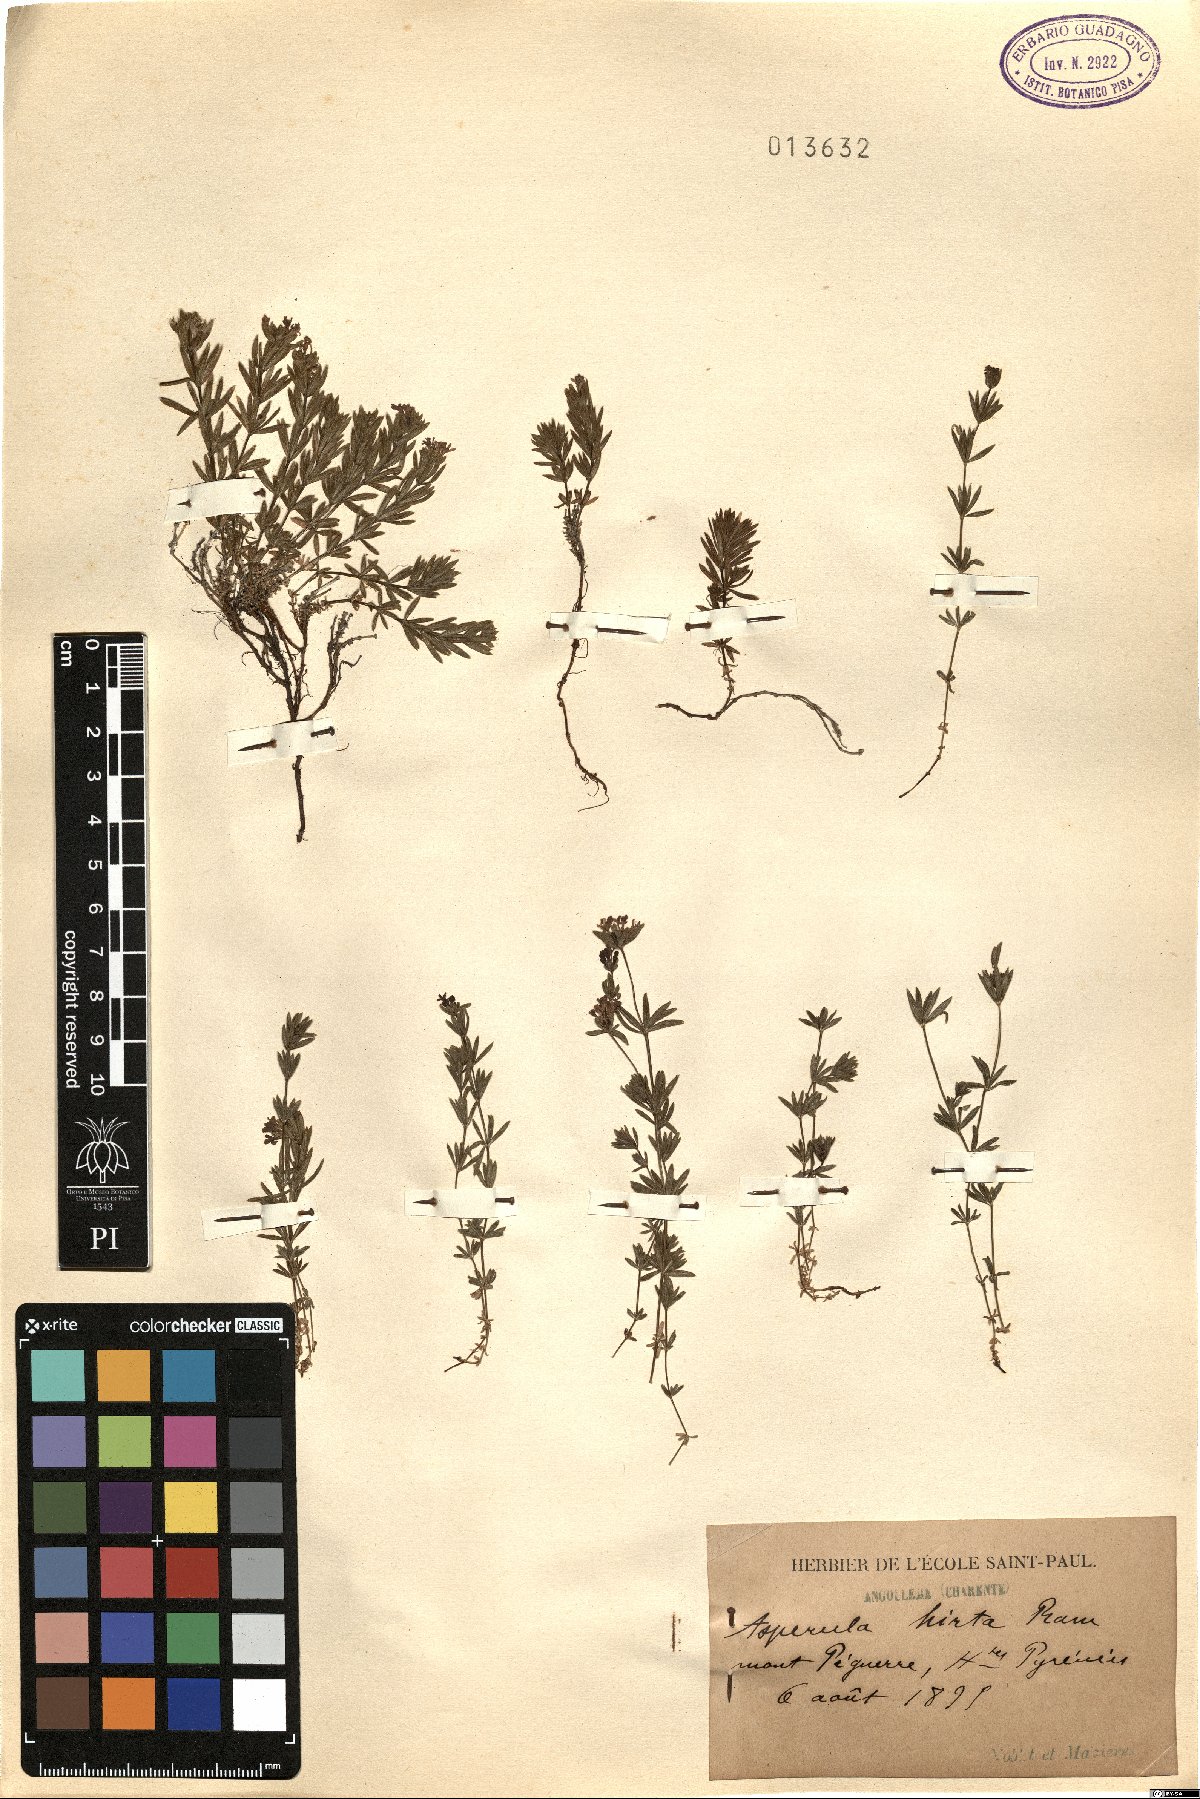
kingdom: Plantae
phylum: Tracheophyta
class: Magnoliopsida
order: Gentianales
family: Rubiaceae
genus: Hexaphylla
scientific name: Hexaphylla hirta
